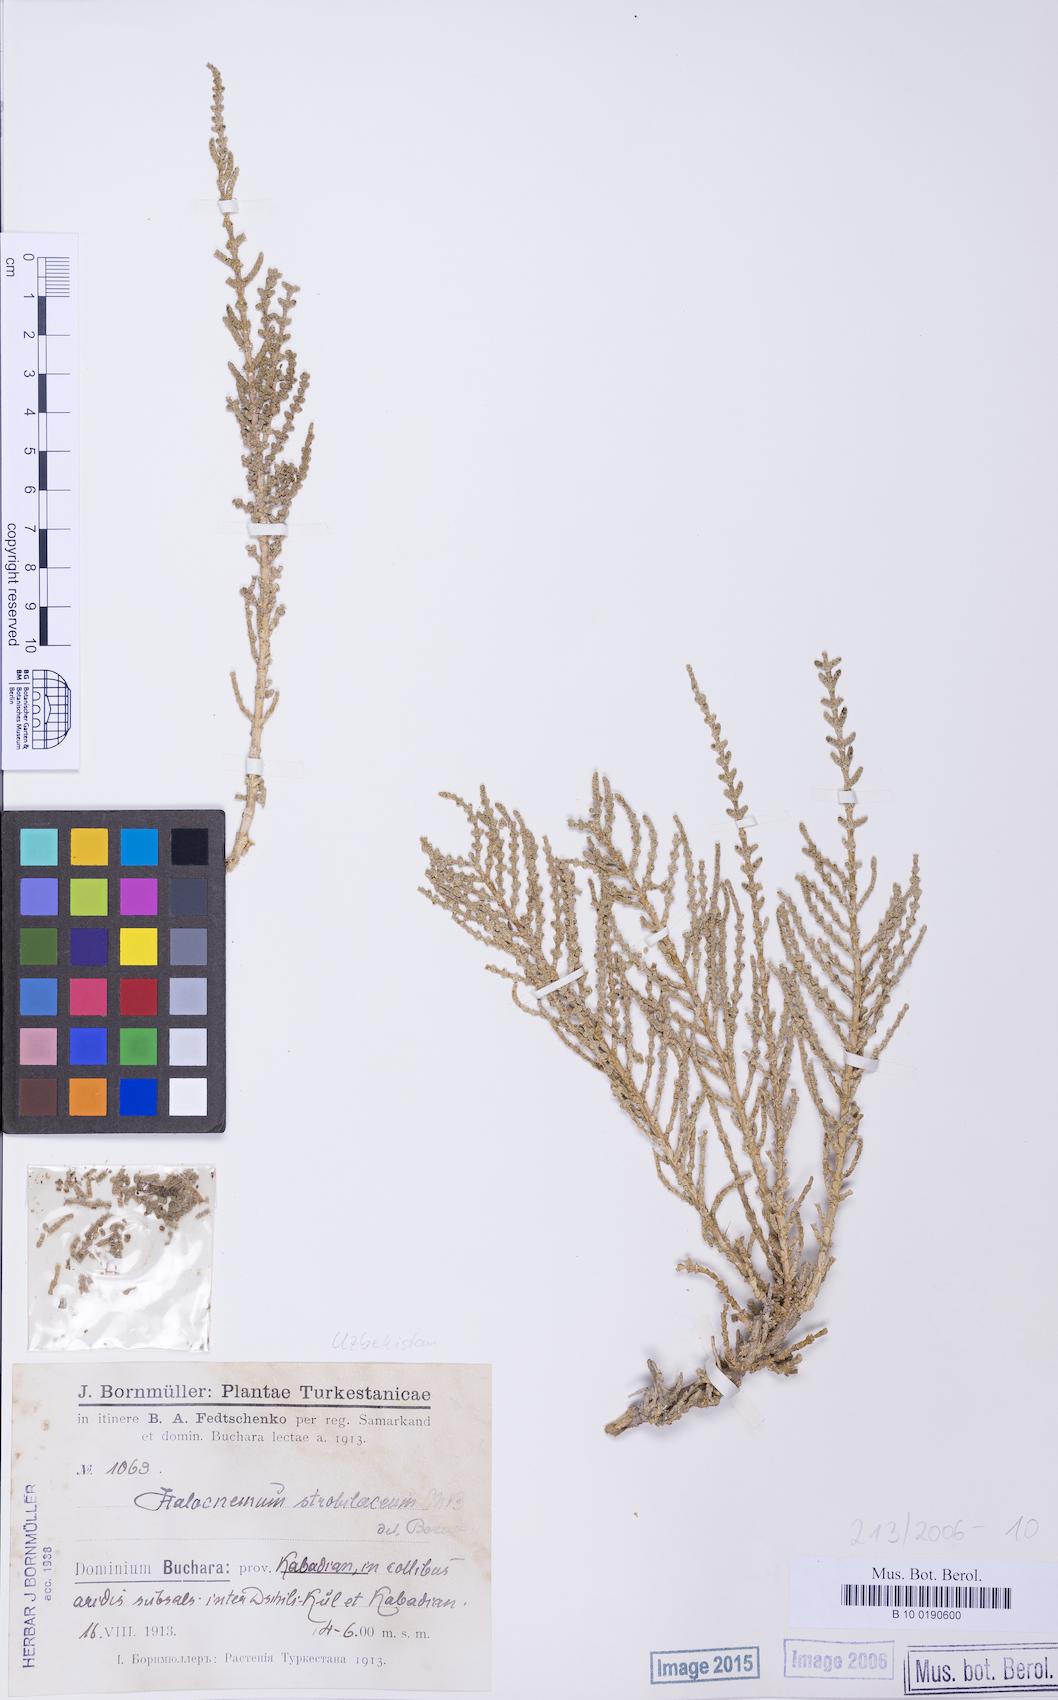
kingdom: Plantae
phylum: Tracheophyta
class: Magnoliopsida
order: Caryophyllales
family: Amaranthaceae
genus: Halocnemum
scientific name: Halocnemum strobilaceum
